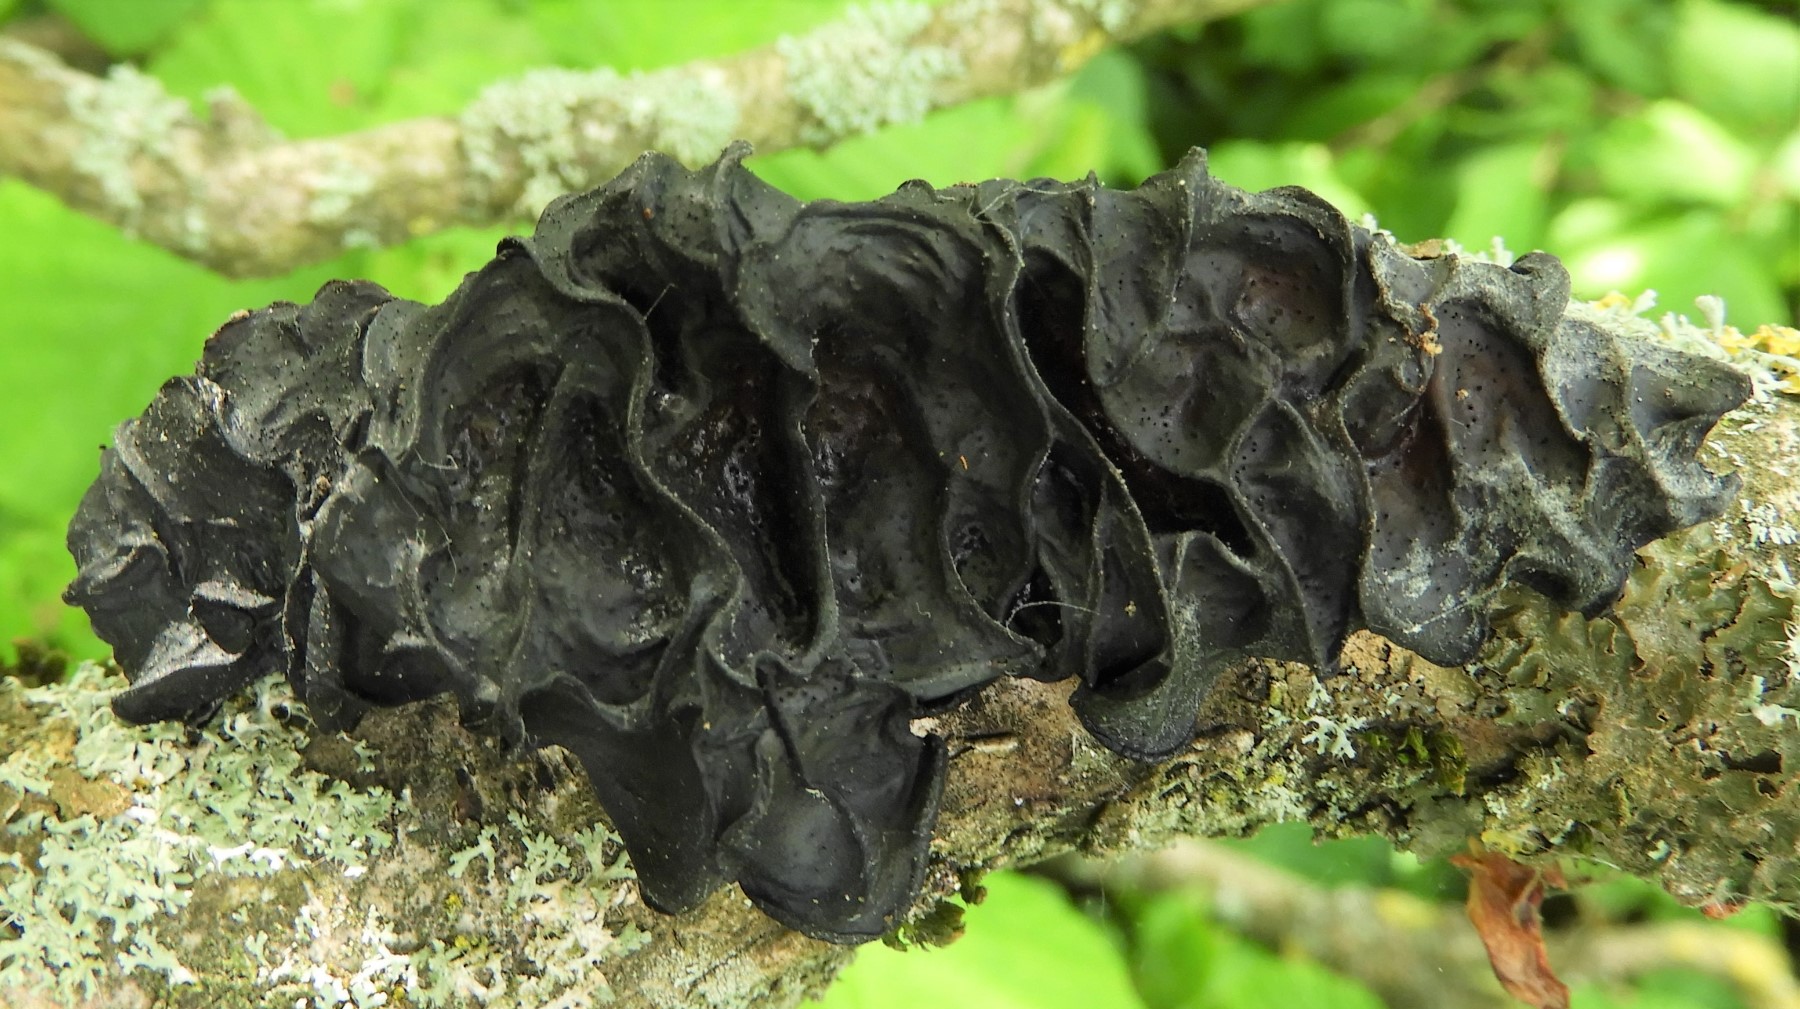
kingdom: Fungi
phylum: Basidiomycota
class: Agaricomycetes
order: Auriculariales
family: Auriculariaceae
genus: Exidia
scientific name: Exidia glandulosa
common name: ege-bævretop
